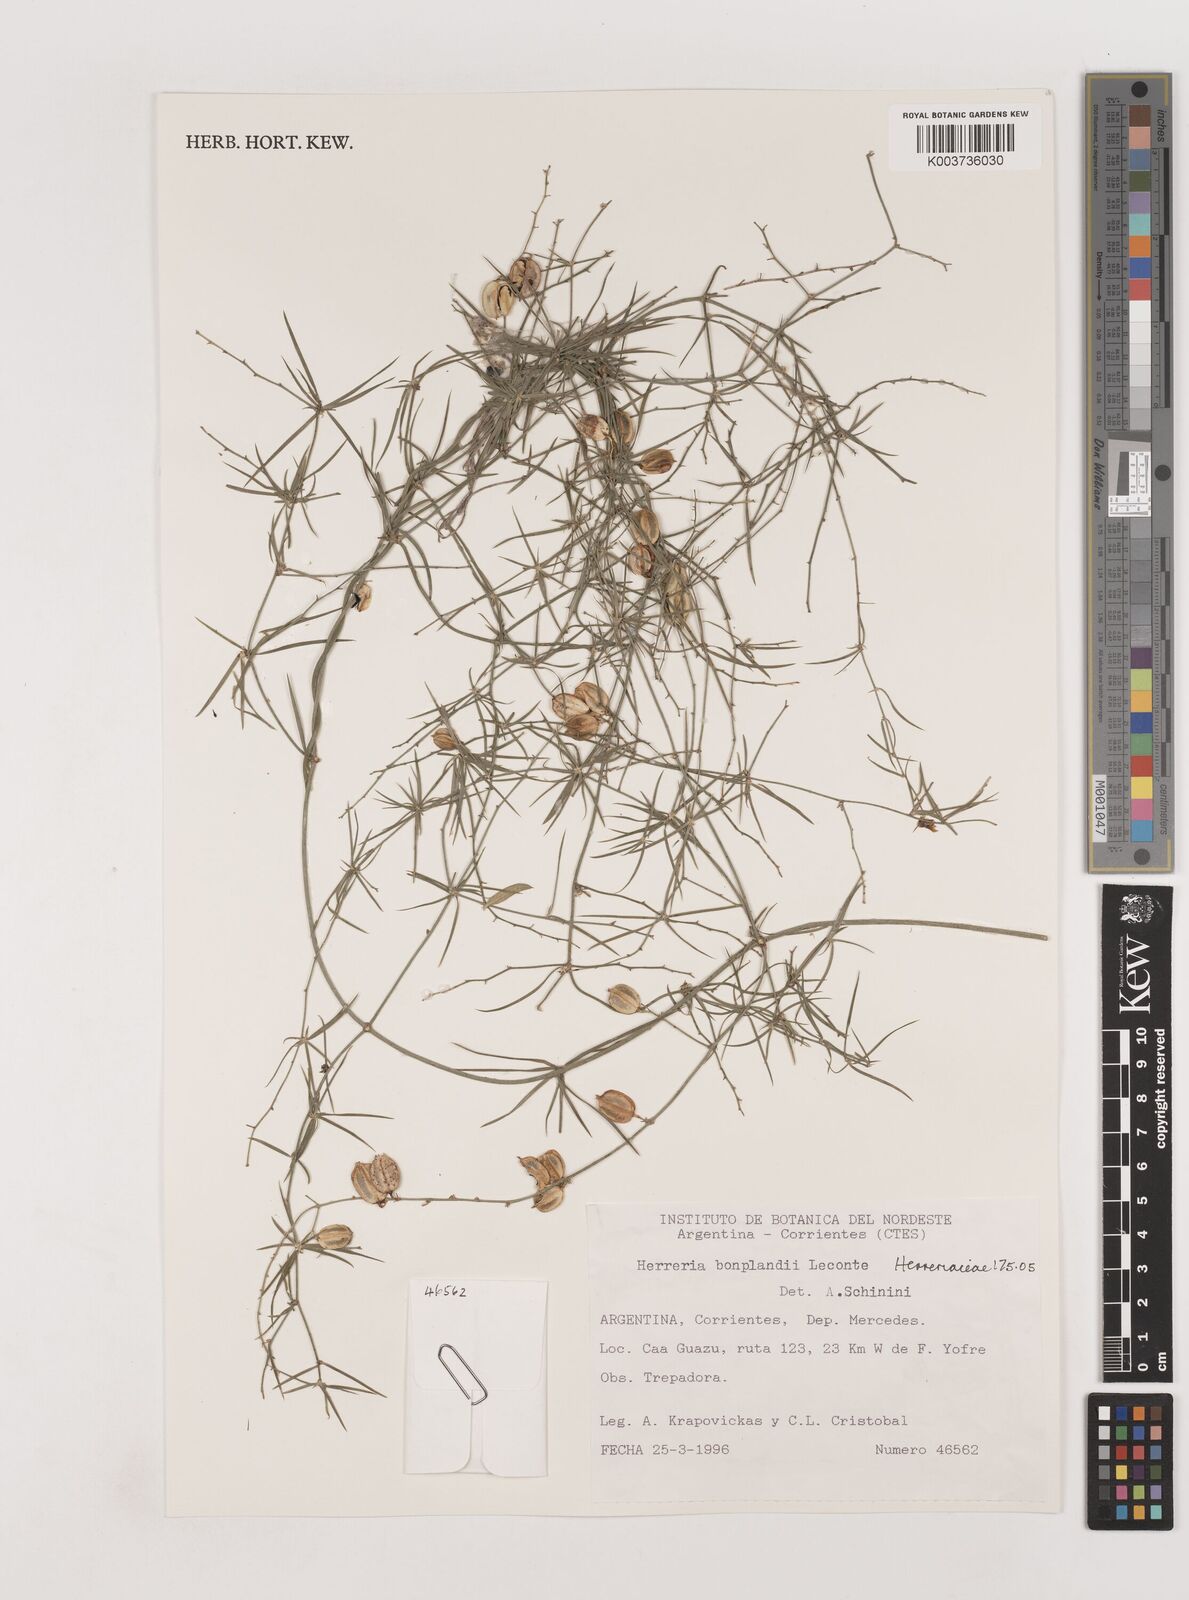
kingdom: Plantae
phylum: Tracheophyta
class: Liliopsida
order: Asparagales
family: Asparagaceae
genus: Herreria
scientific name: Herreria bonplandii
